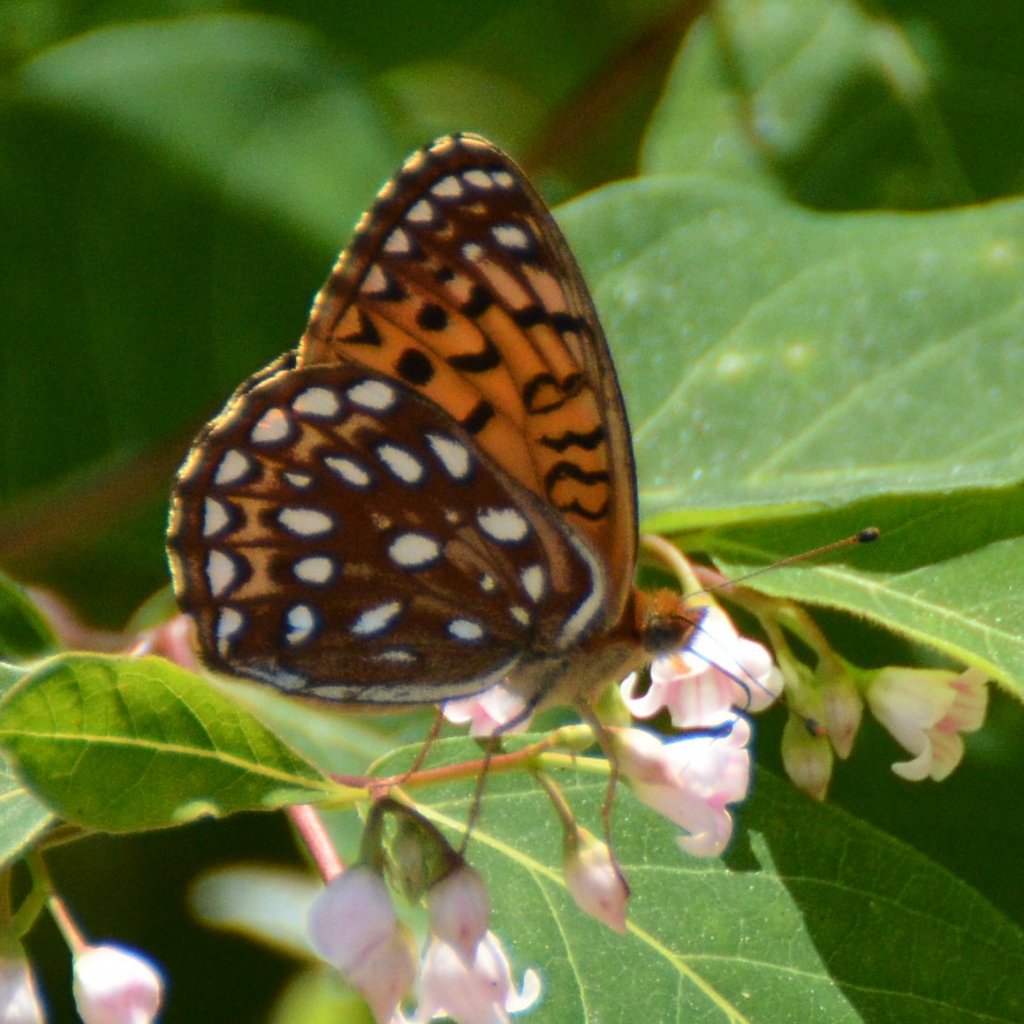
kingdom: Animalia
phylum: Arthropoda
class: Insecta
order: Lepidoptera
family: Nymphalidae
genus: Speyeria
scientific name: Speyeria atlantis
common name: Atlantis Fritillary
